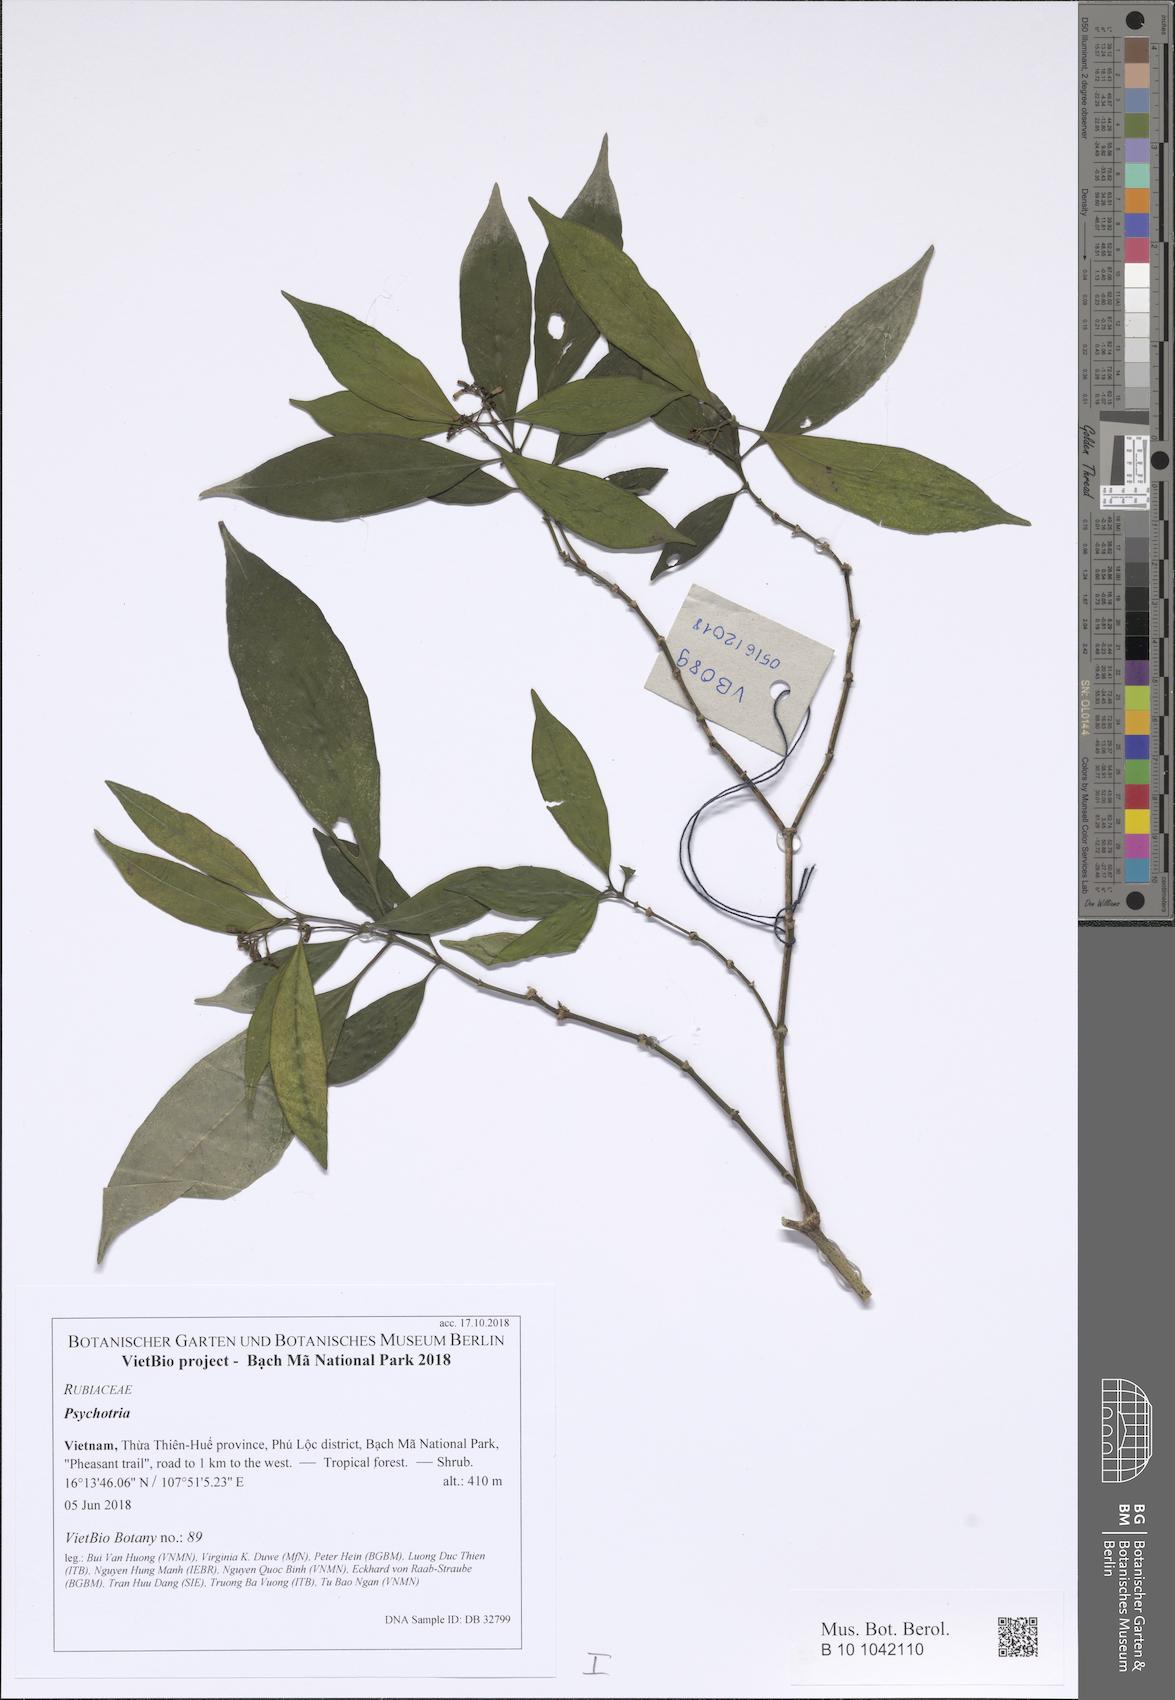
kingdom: Plantae
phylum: Tracheophyta
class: Magnoliopsida
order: Gentianales
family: Rubiaceae
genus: Psychotria
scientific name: Psychotria
